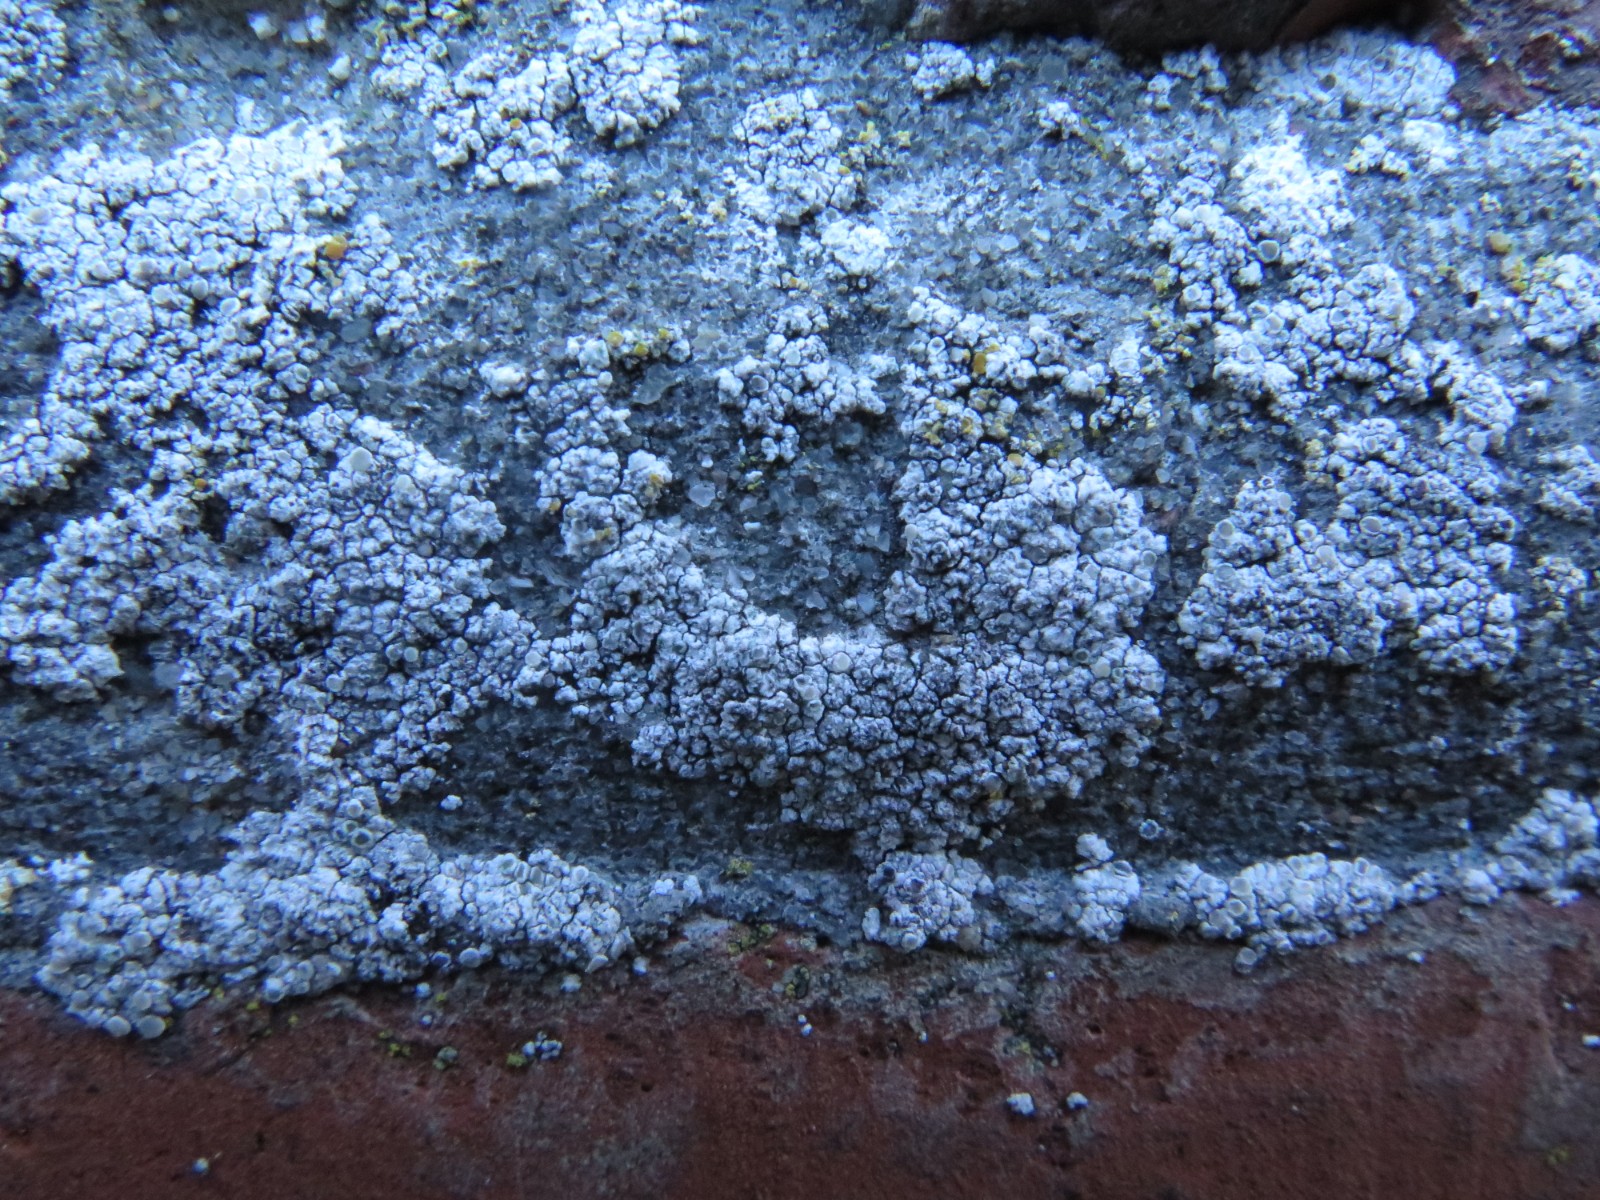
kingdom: Fungi
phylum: Ascomycota
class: Lecanoromycetes
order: Lecanorales
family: Lecanoraceae
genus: Polyozosia
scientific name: Polyozosia albescens
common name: cement-kantskivelav
